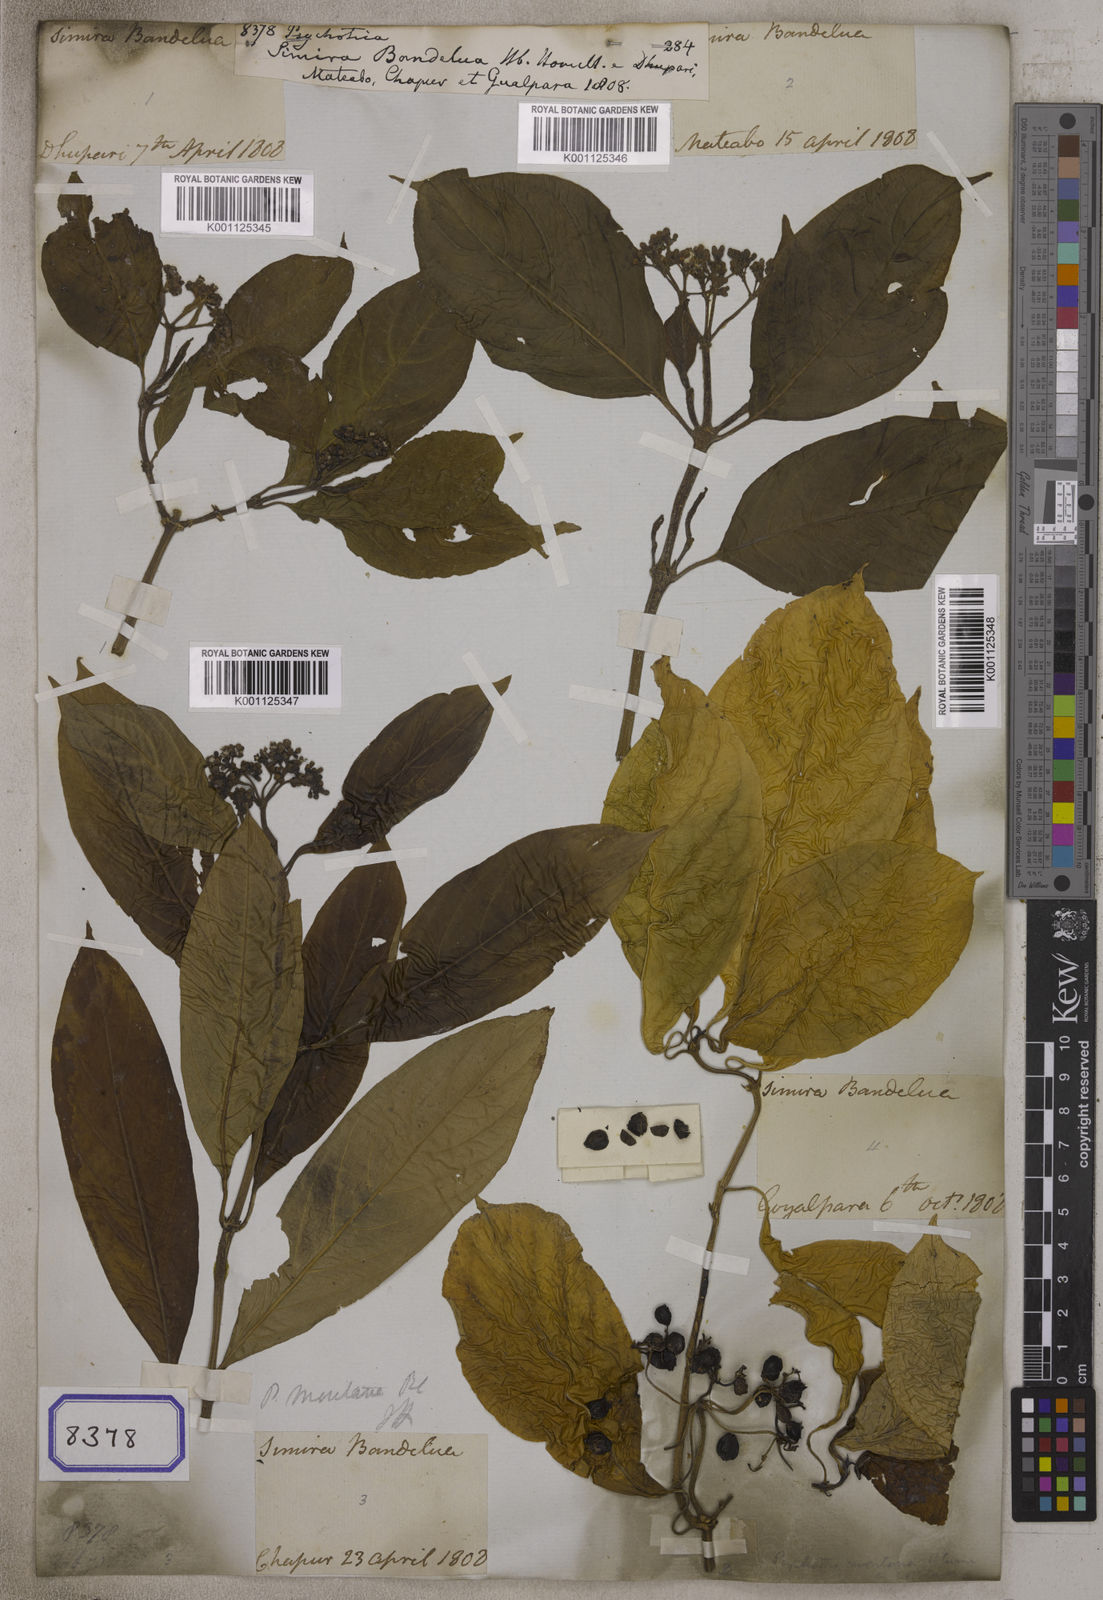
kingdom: Plantae
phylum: Tracheophyta
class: Magnoliopsida
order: Gentianales
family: Rubiaceae
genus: Psychotria
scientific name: Psychotria
